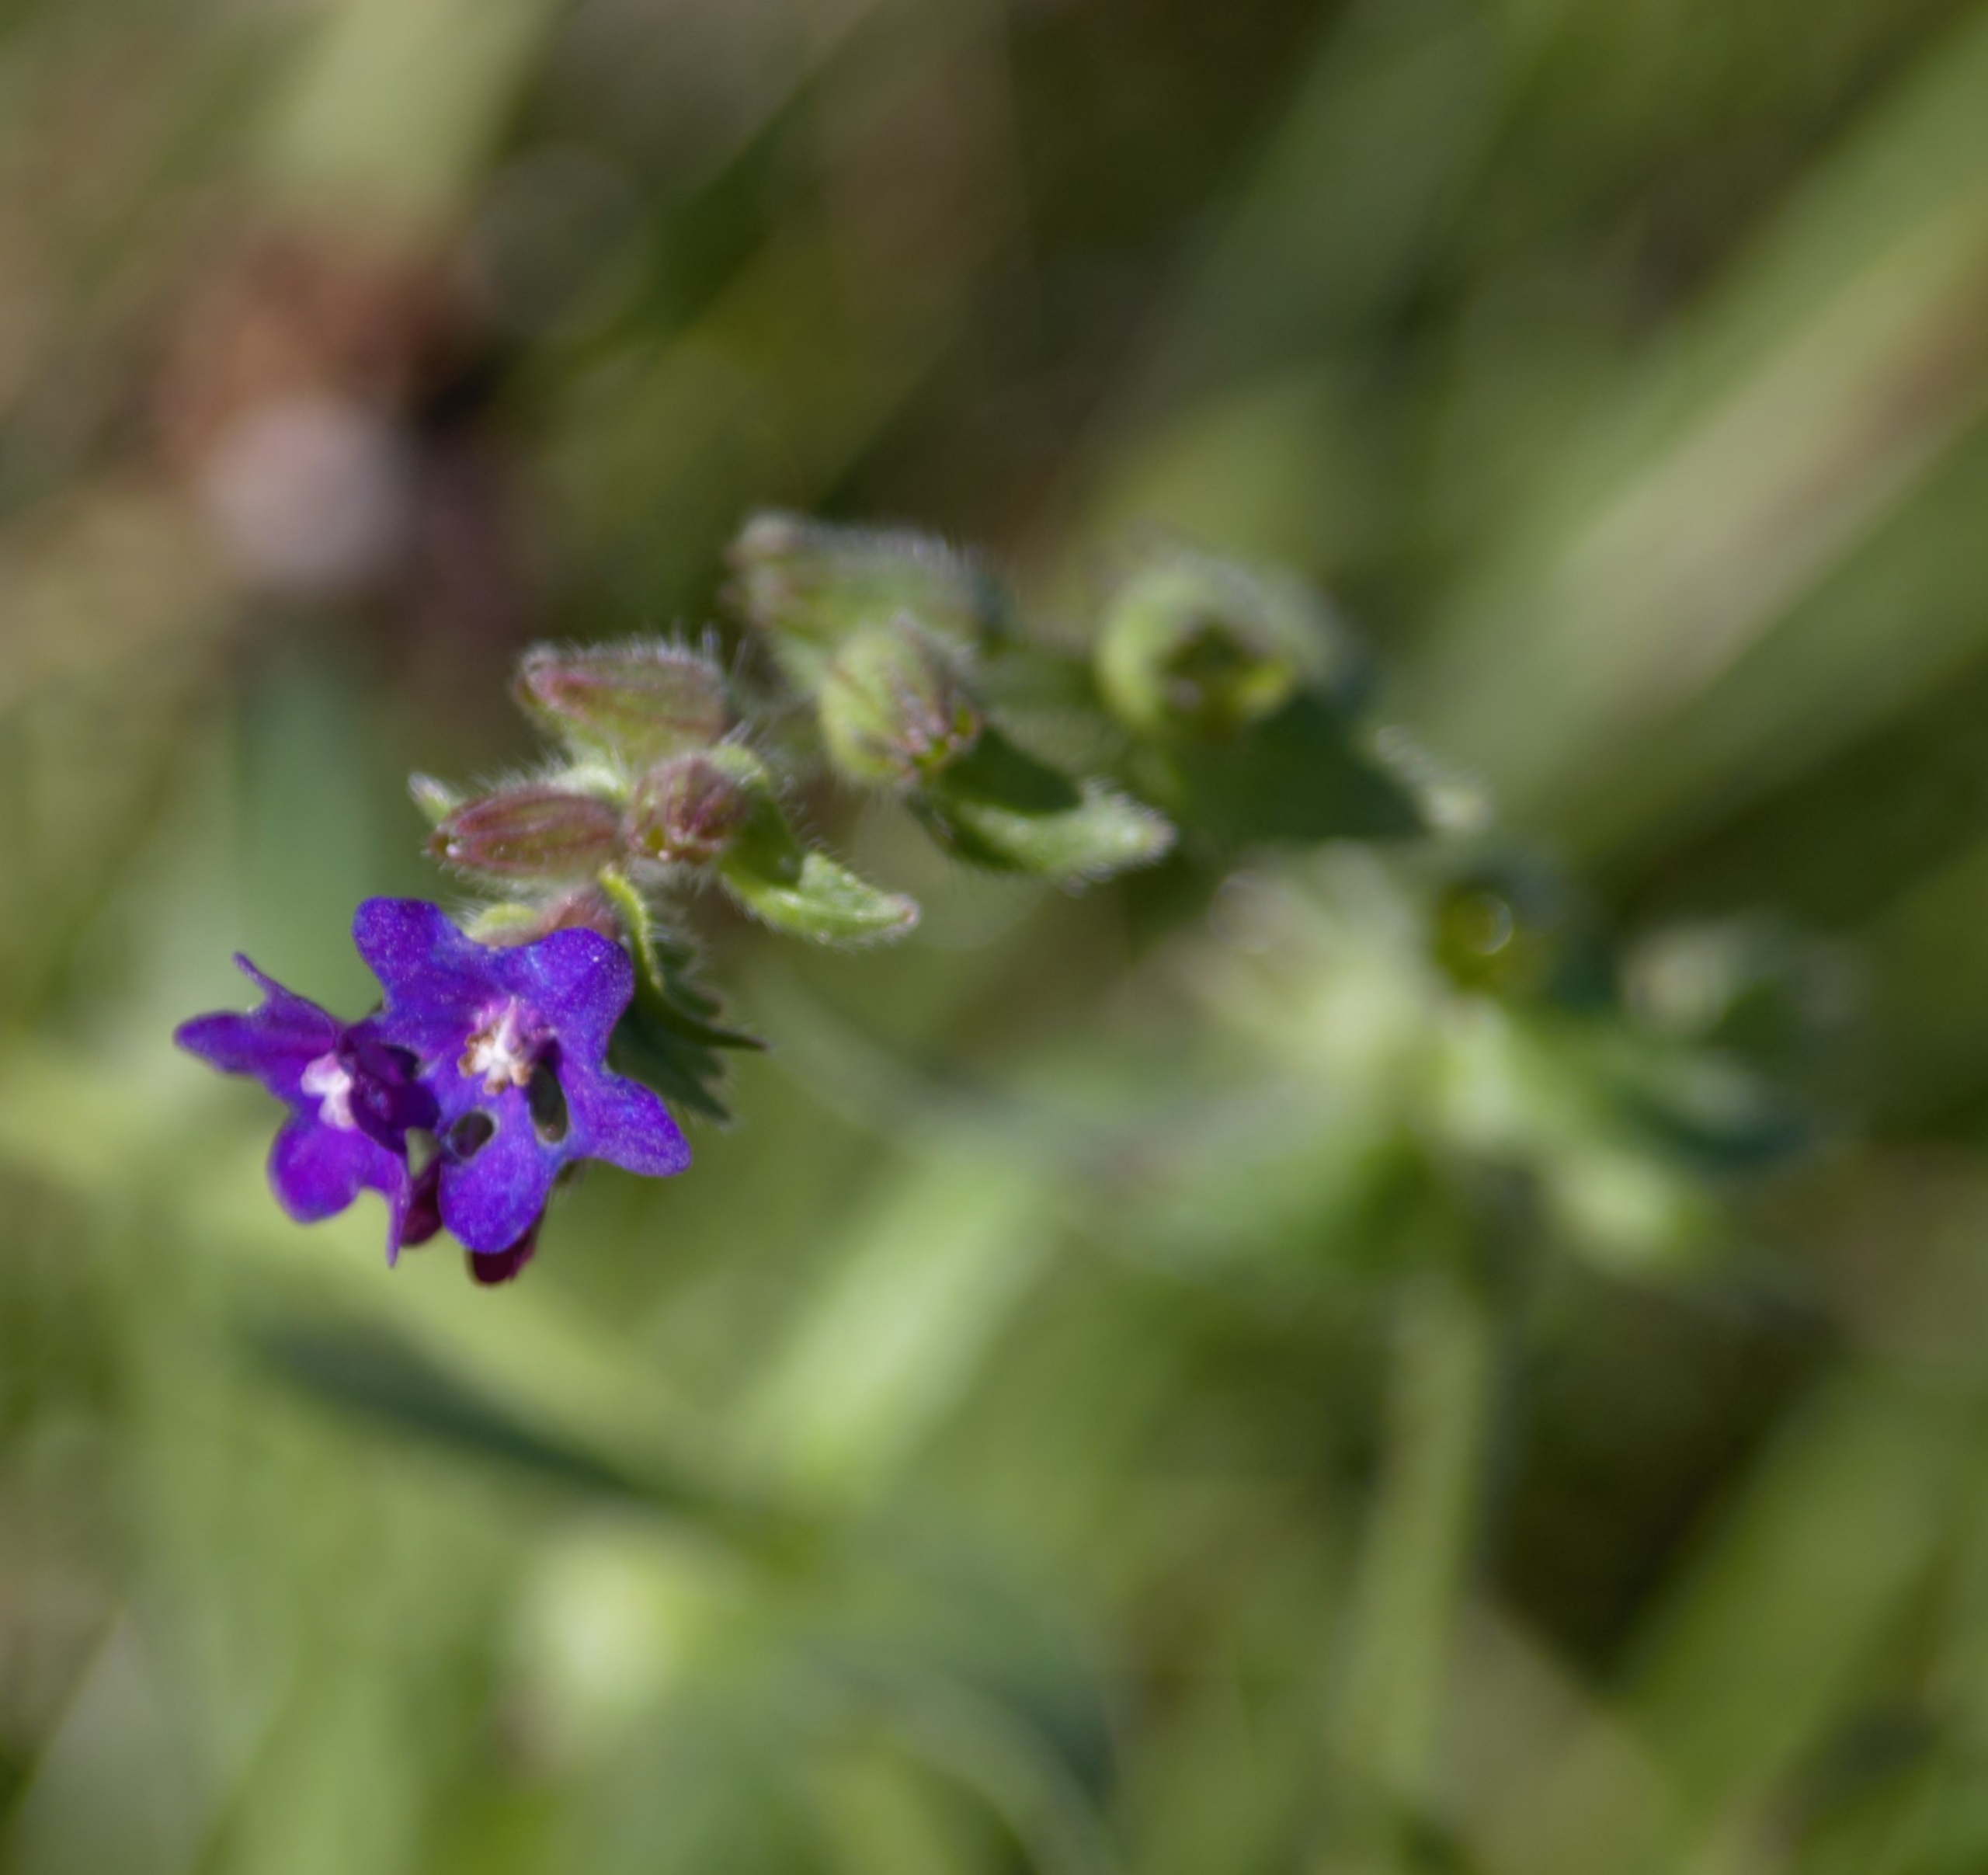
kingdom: Plantae
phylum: Tracheophyta
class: Magnoliopsida
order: Boraginales
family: Boraginaceae
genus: Anchusa
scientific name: Anchusa officinalis
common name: Læge-oksetunge
